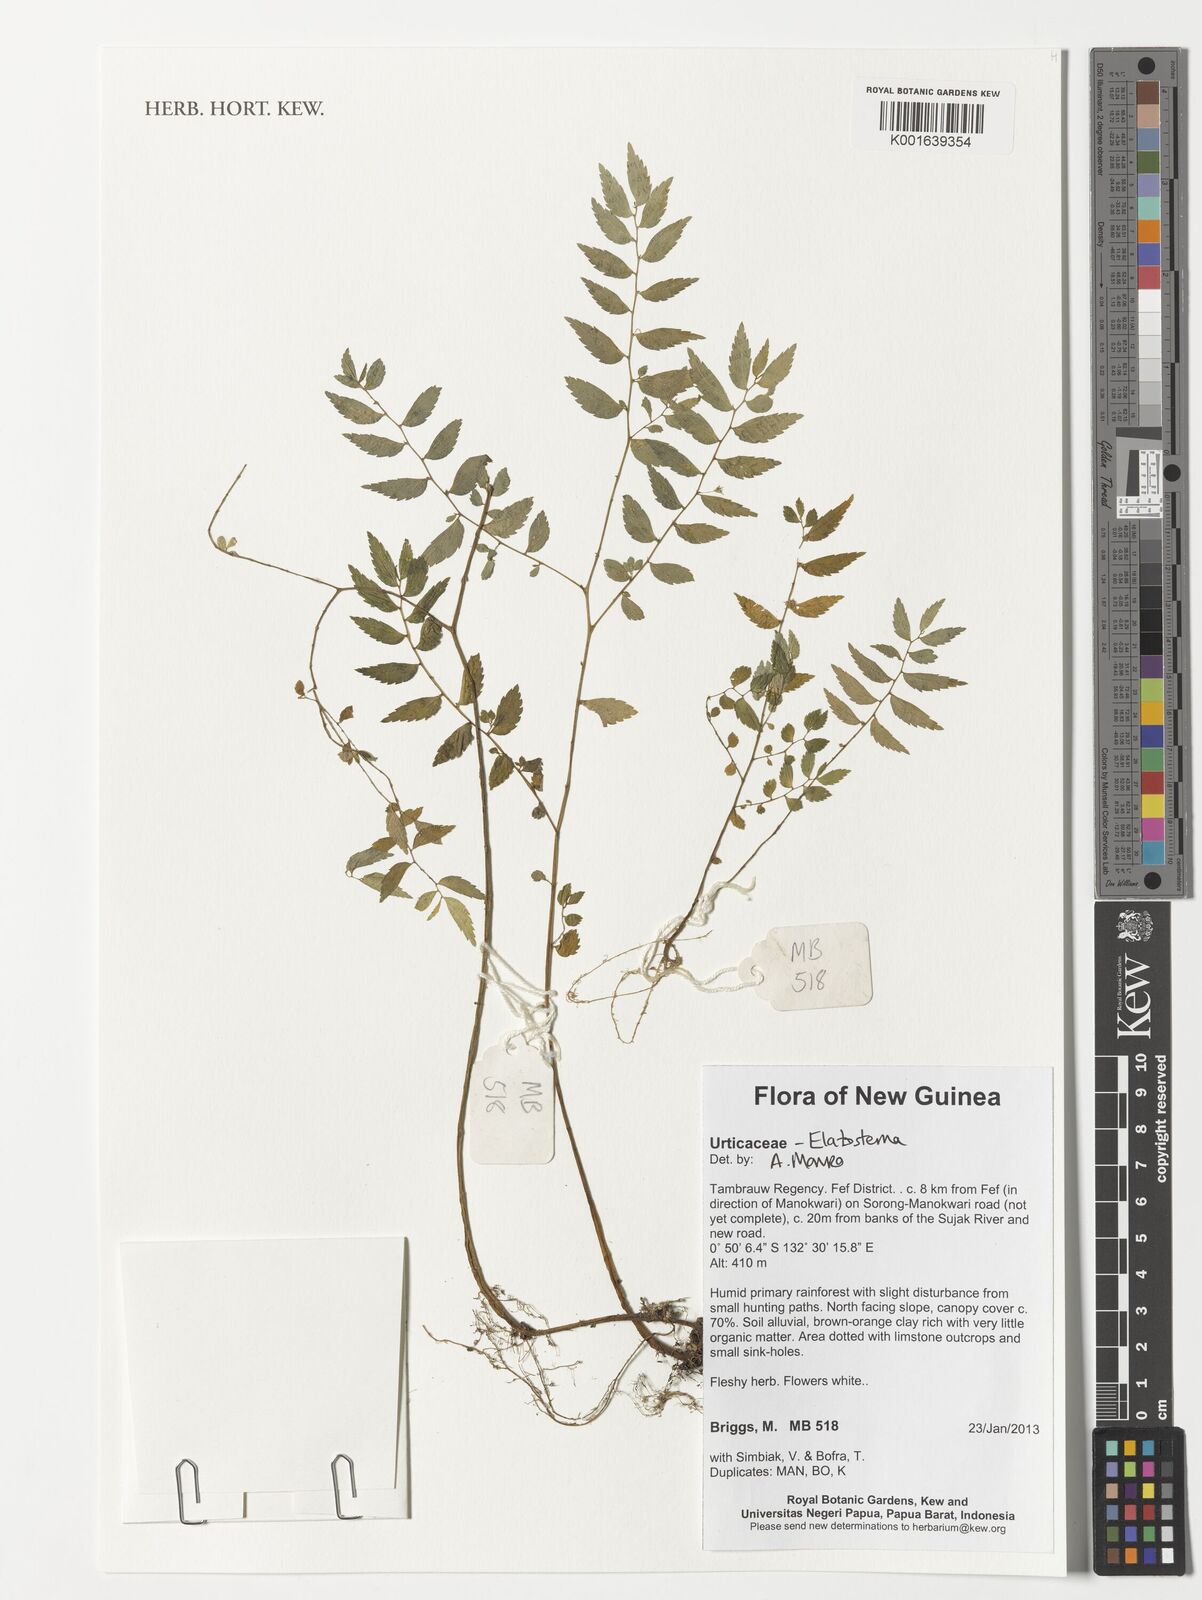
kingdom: Plantae
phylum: Tracheophyta
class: Magnoliopsida
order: Rosales
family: Urticaceae
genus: Elatostema
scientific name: Elatostema
